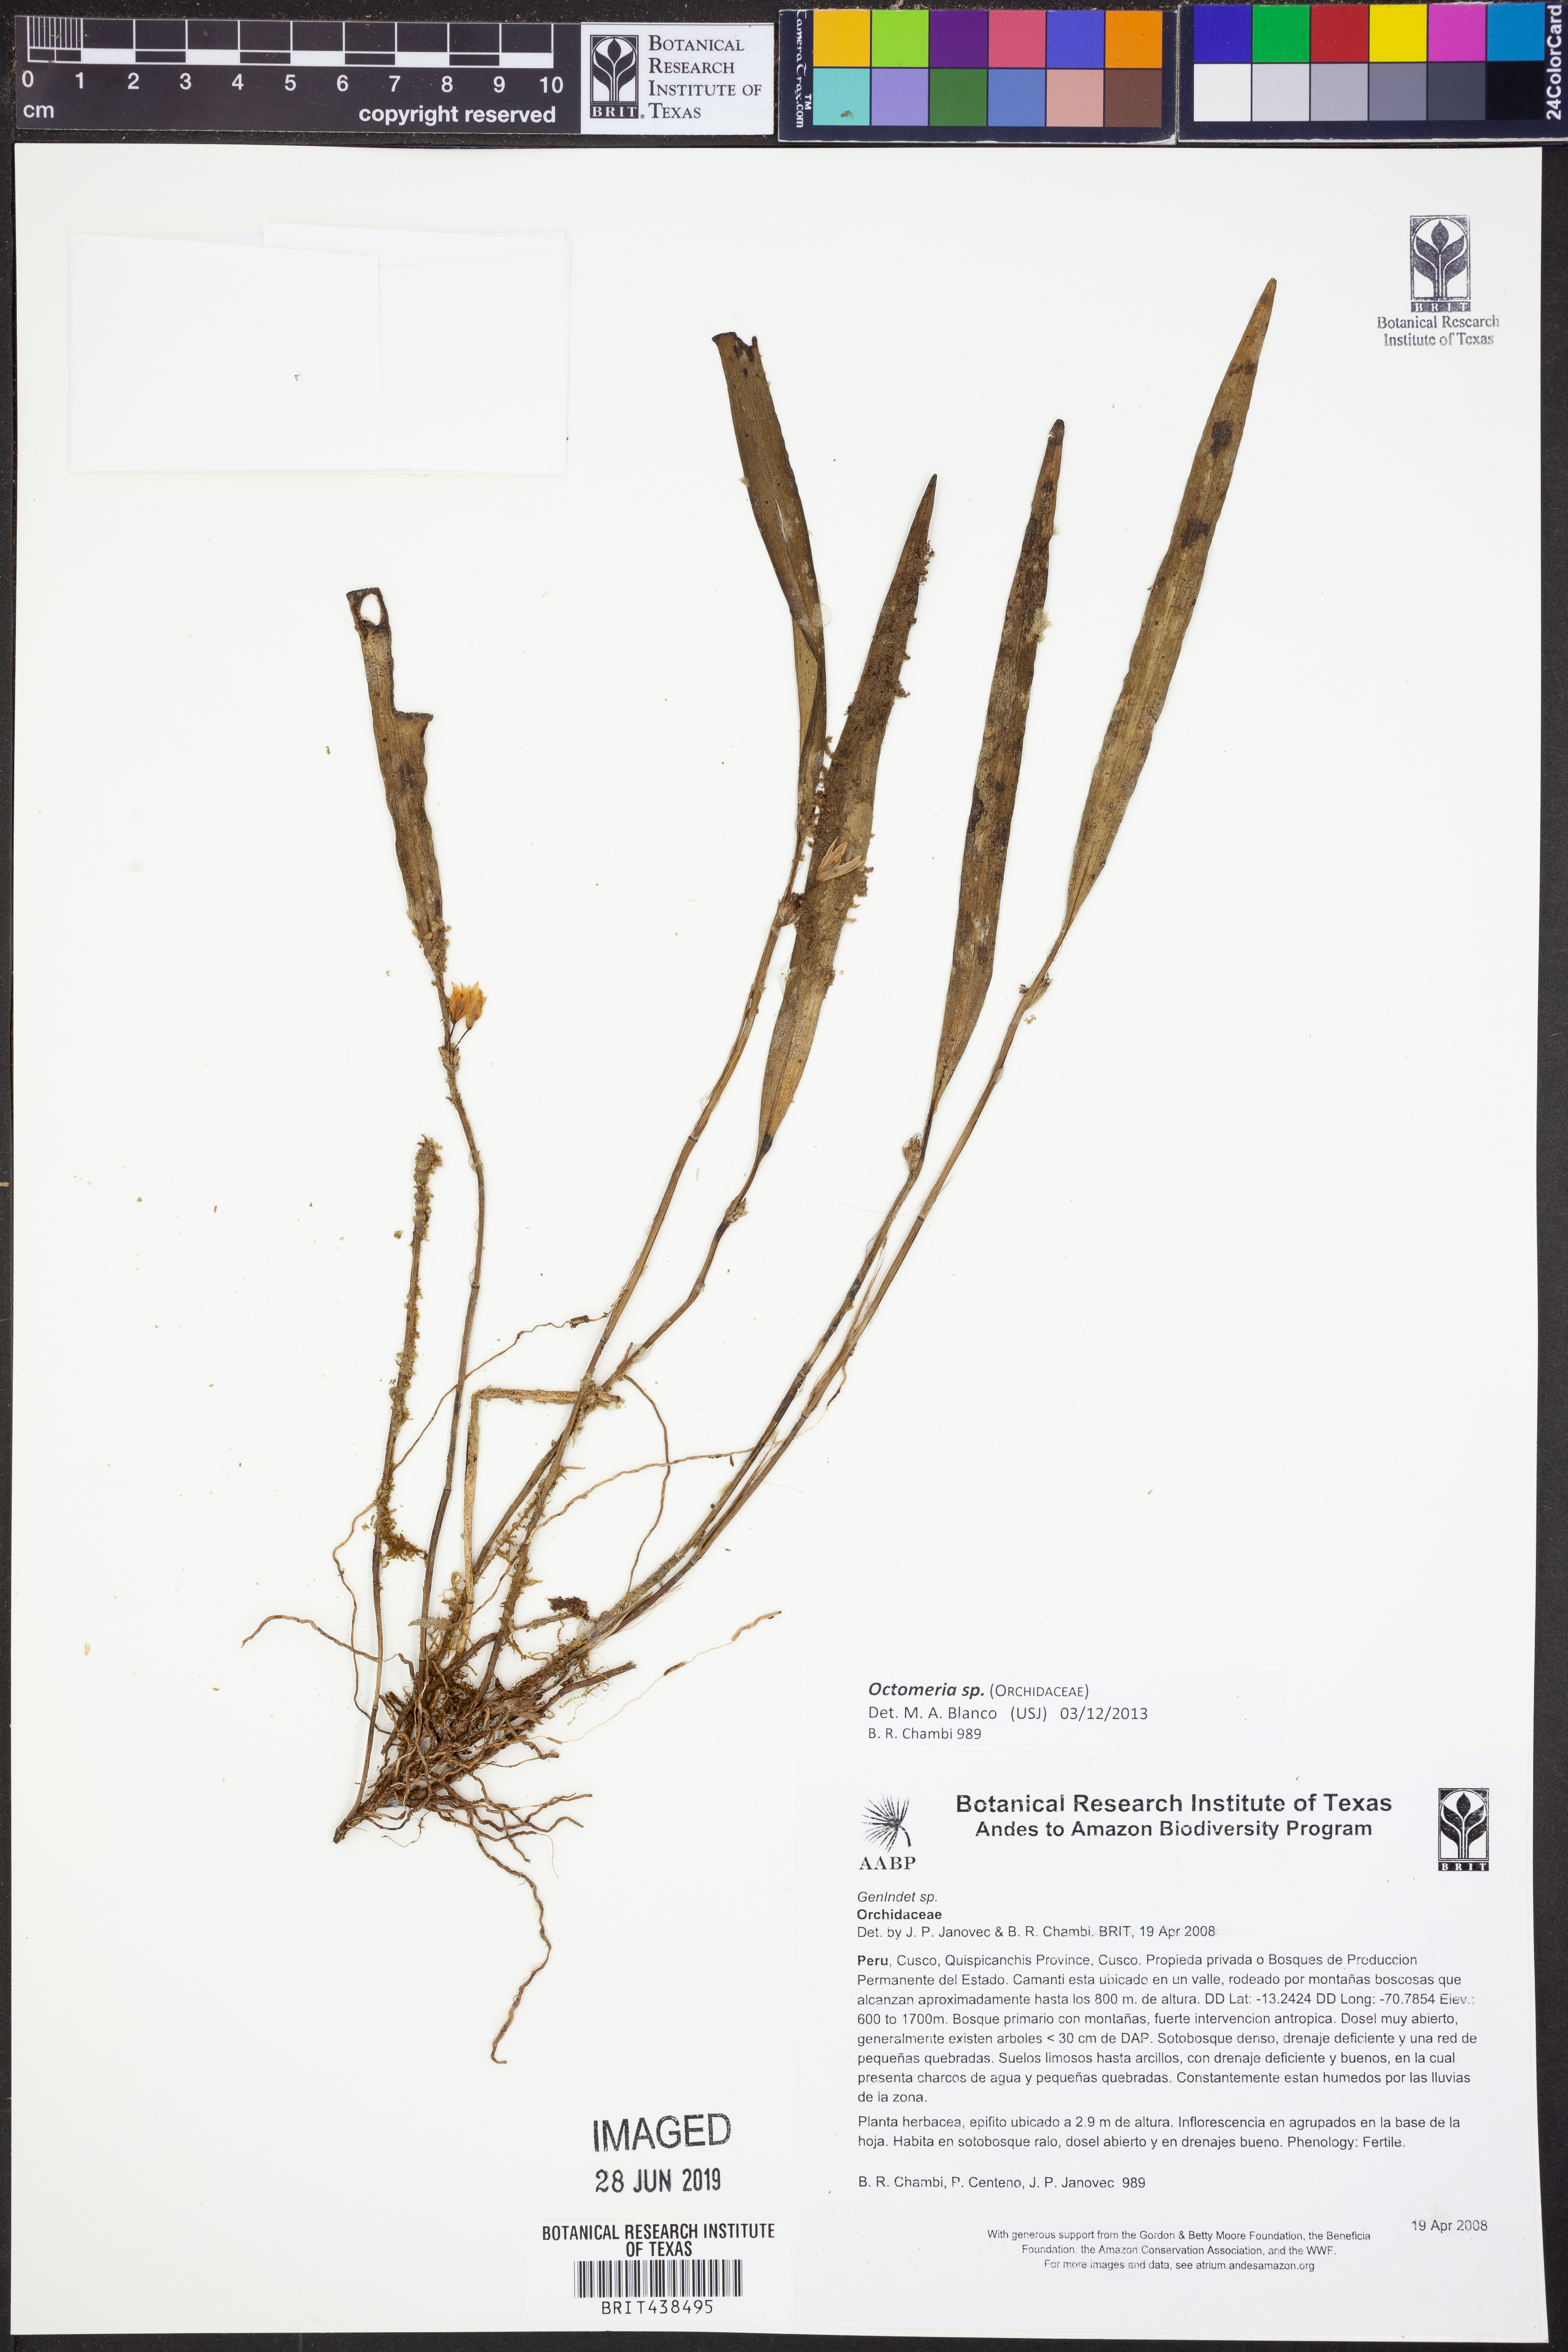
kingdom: Plantae
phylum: Tracheophyta
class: Liliopsida
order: Asparagales
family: Orchidaceae
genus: Octomeria
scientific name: Octomeria
